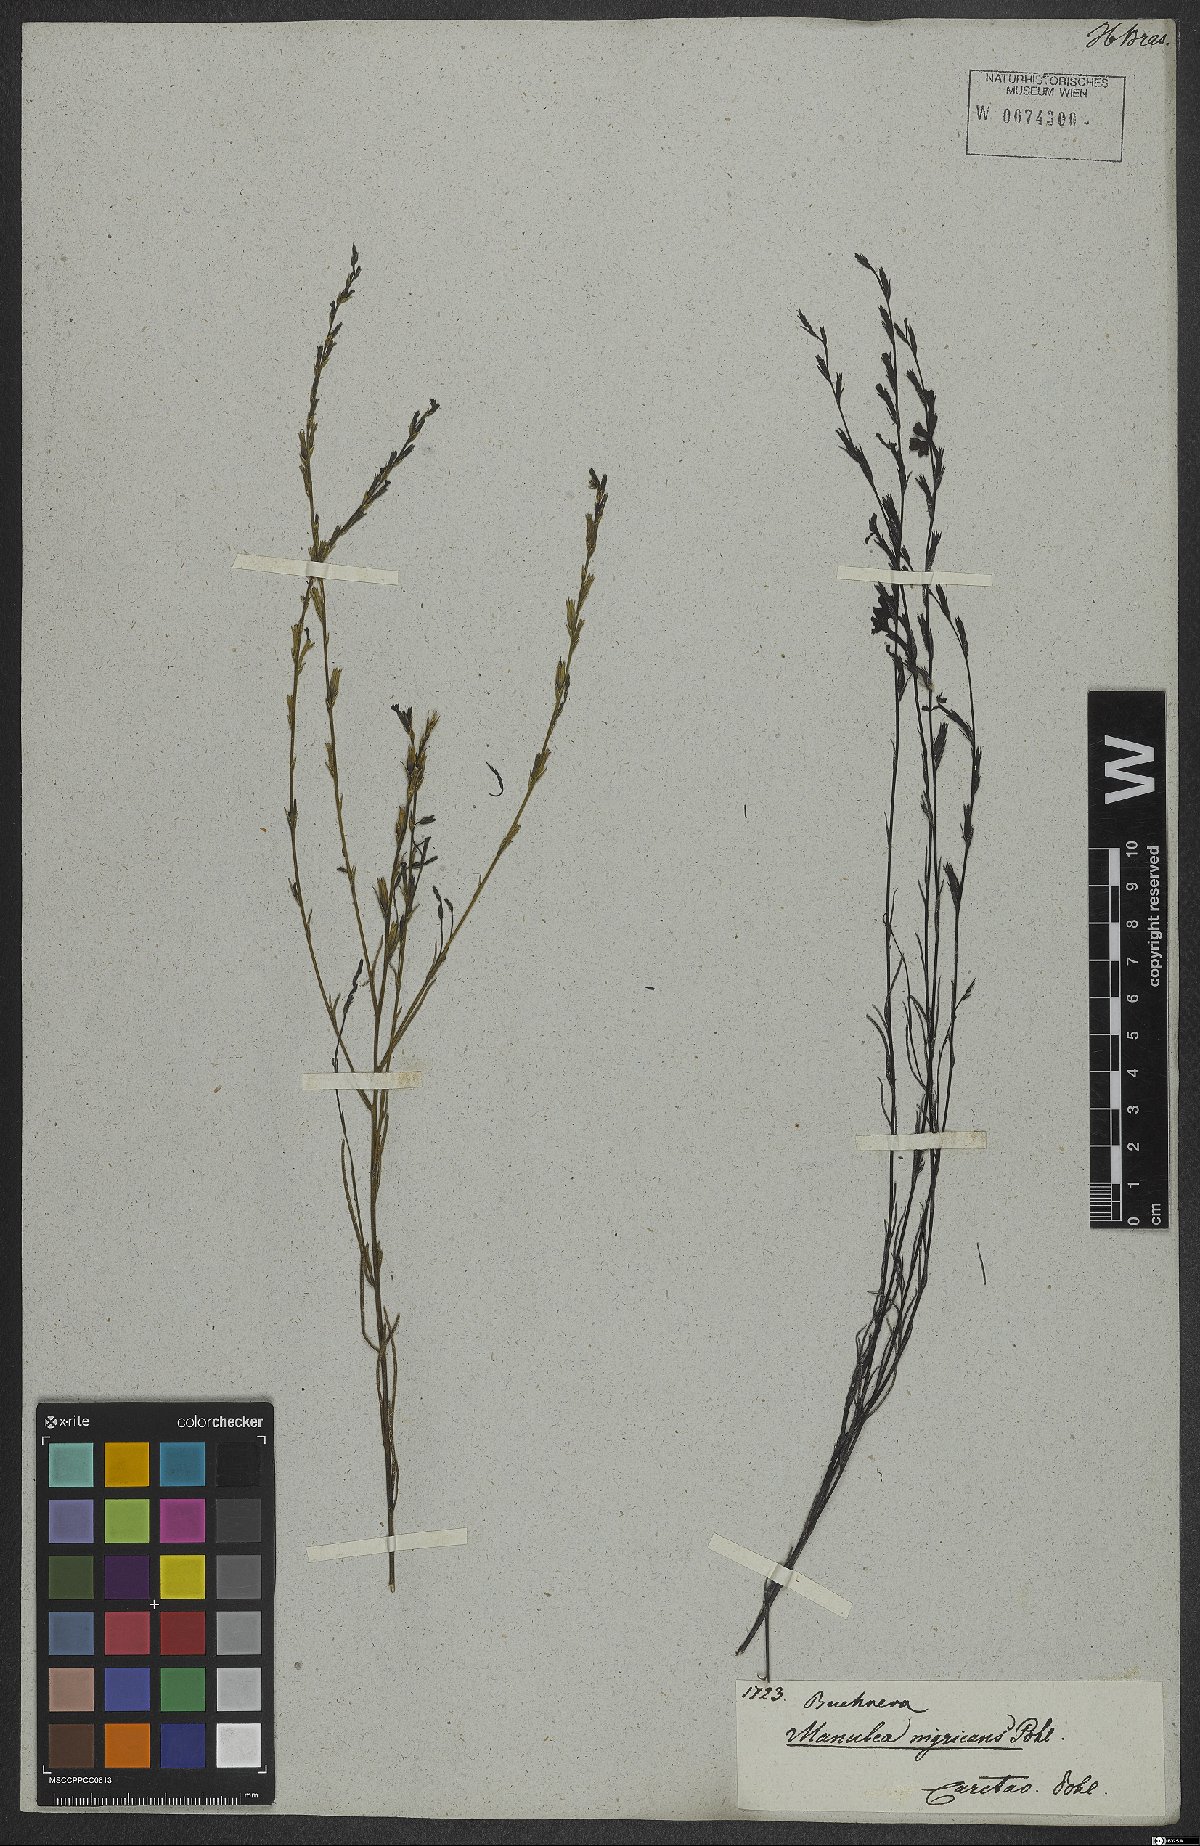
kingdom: Plantae
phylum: Tracheophyta
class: Magnoliopsida
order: Lamiales
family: Orobanchaceae
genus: Buchnera
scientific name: Buchnera palustris
